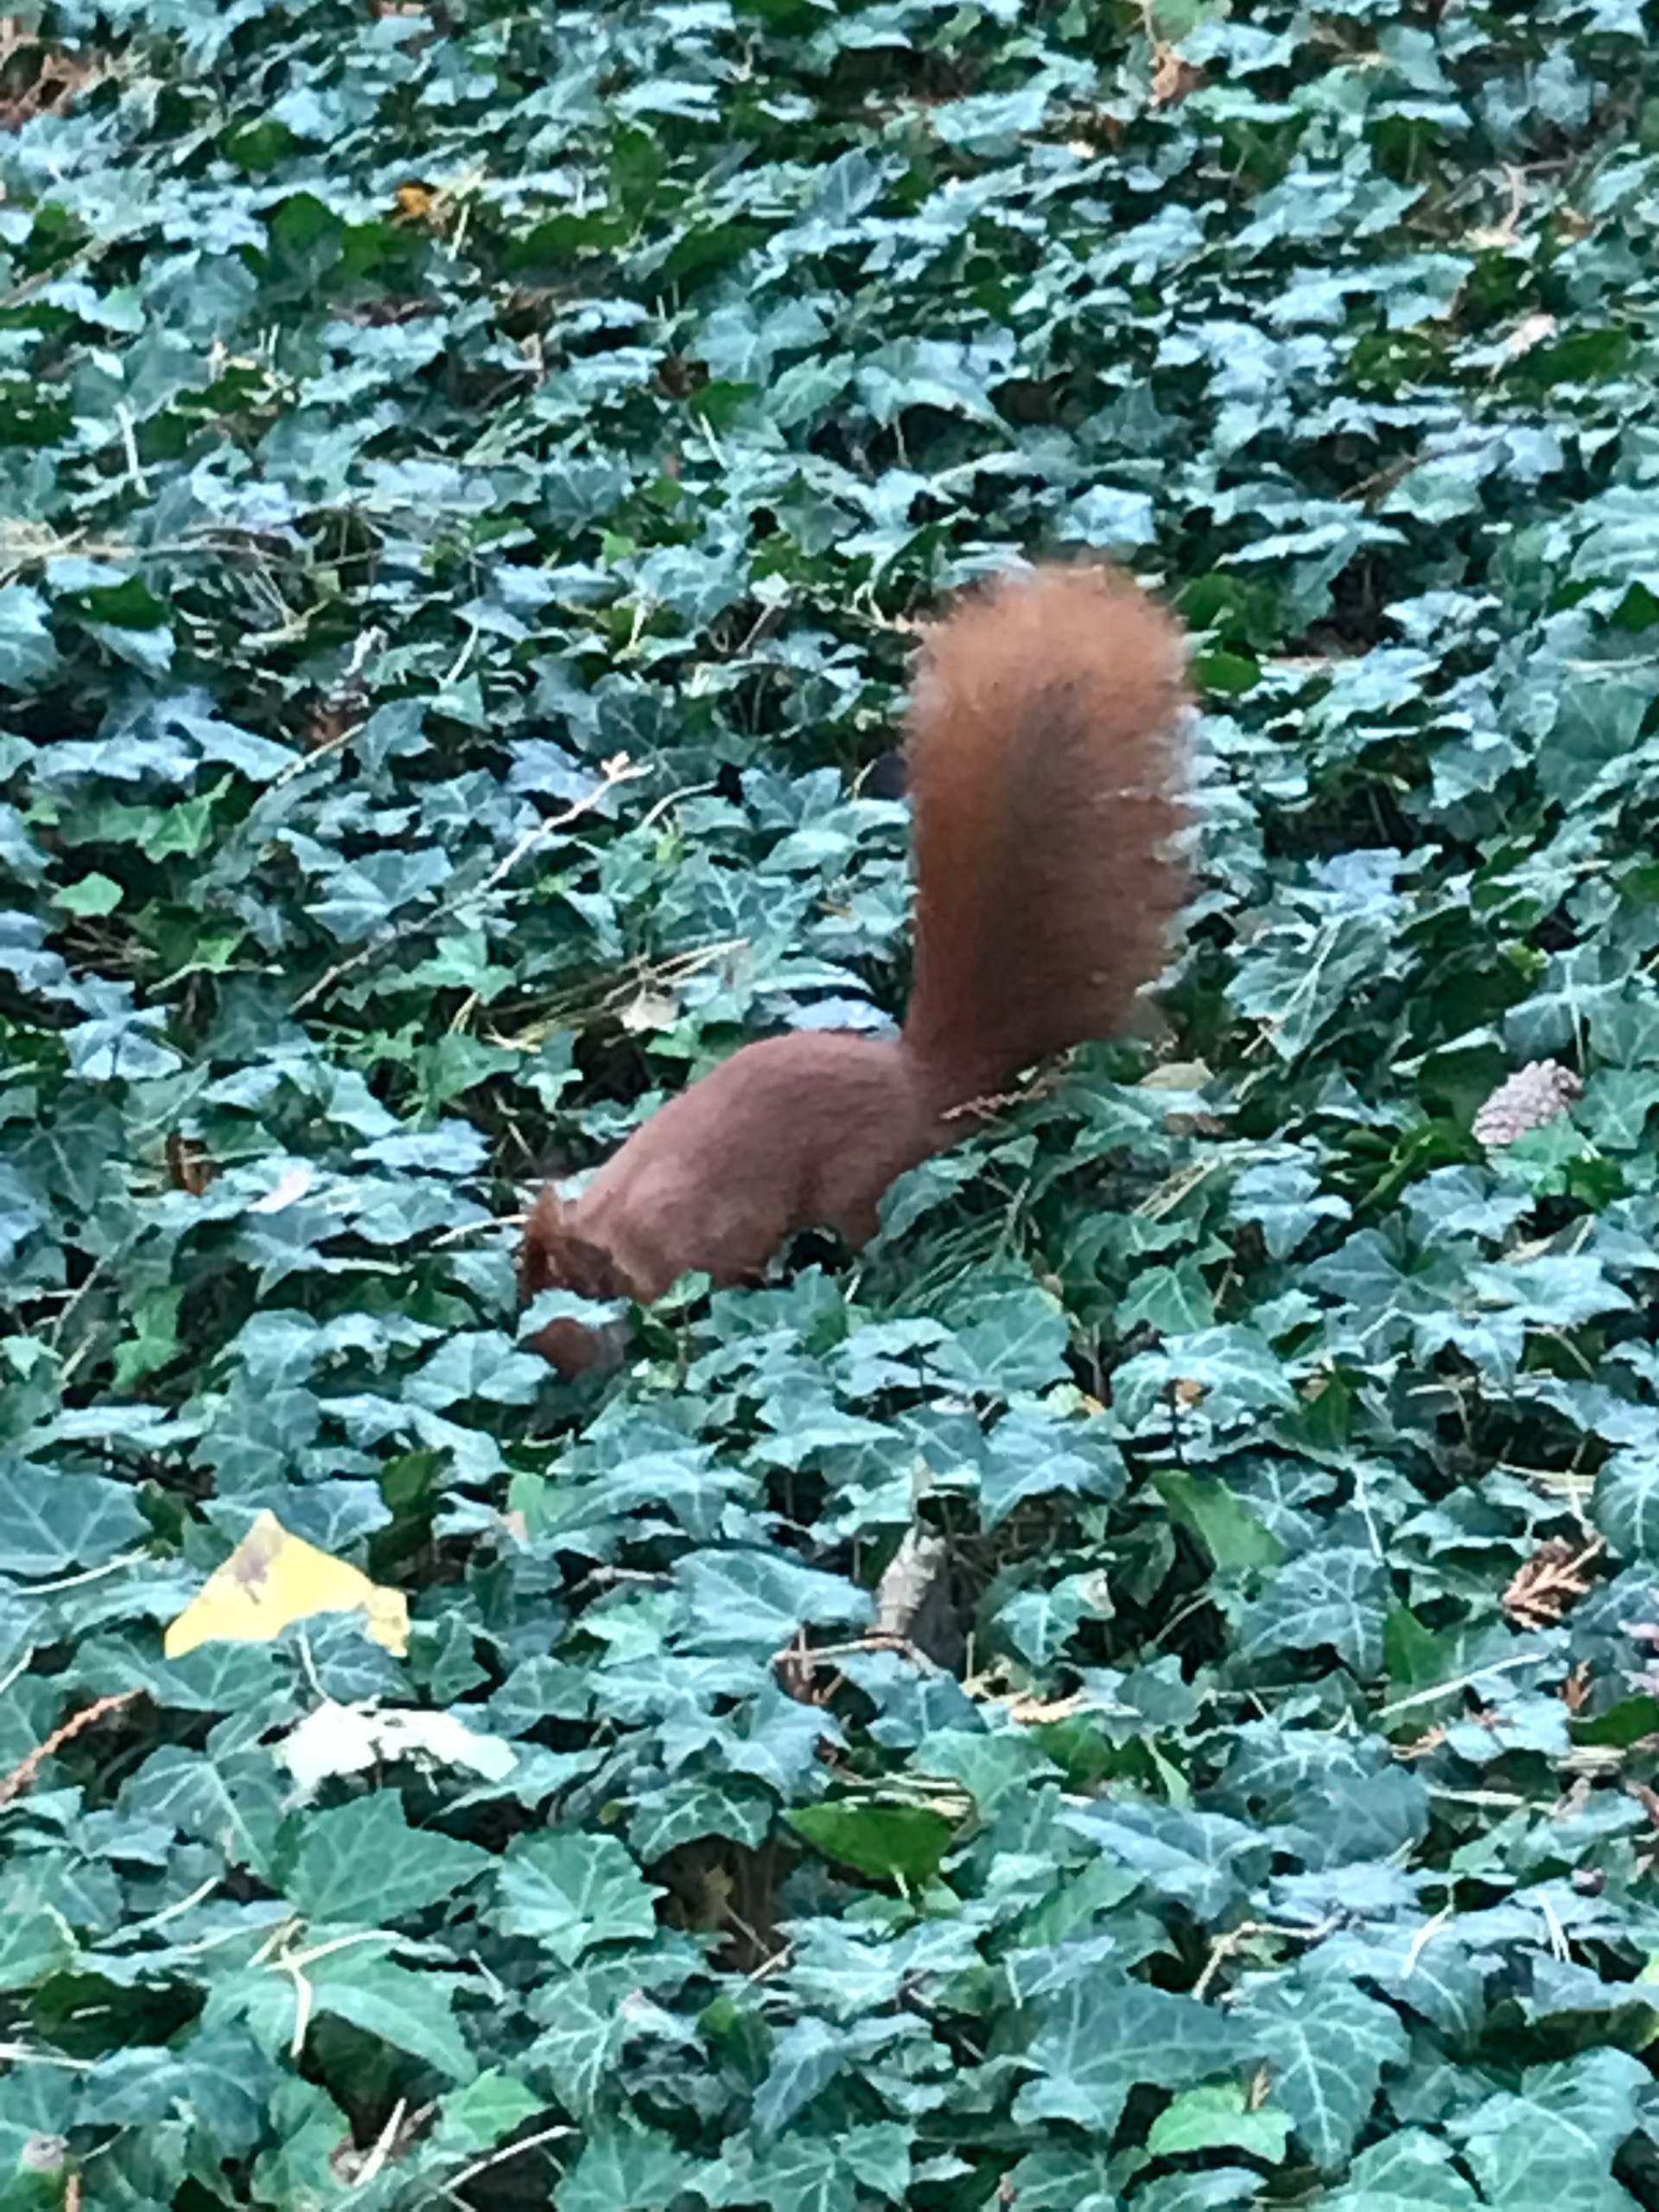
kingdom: Animalia
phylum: Chordata
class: Mammalia
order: Rodentia
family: Sciuridae
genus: Sciurus
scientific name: Sciurus vulgaris
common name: Egern
